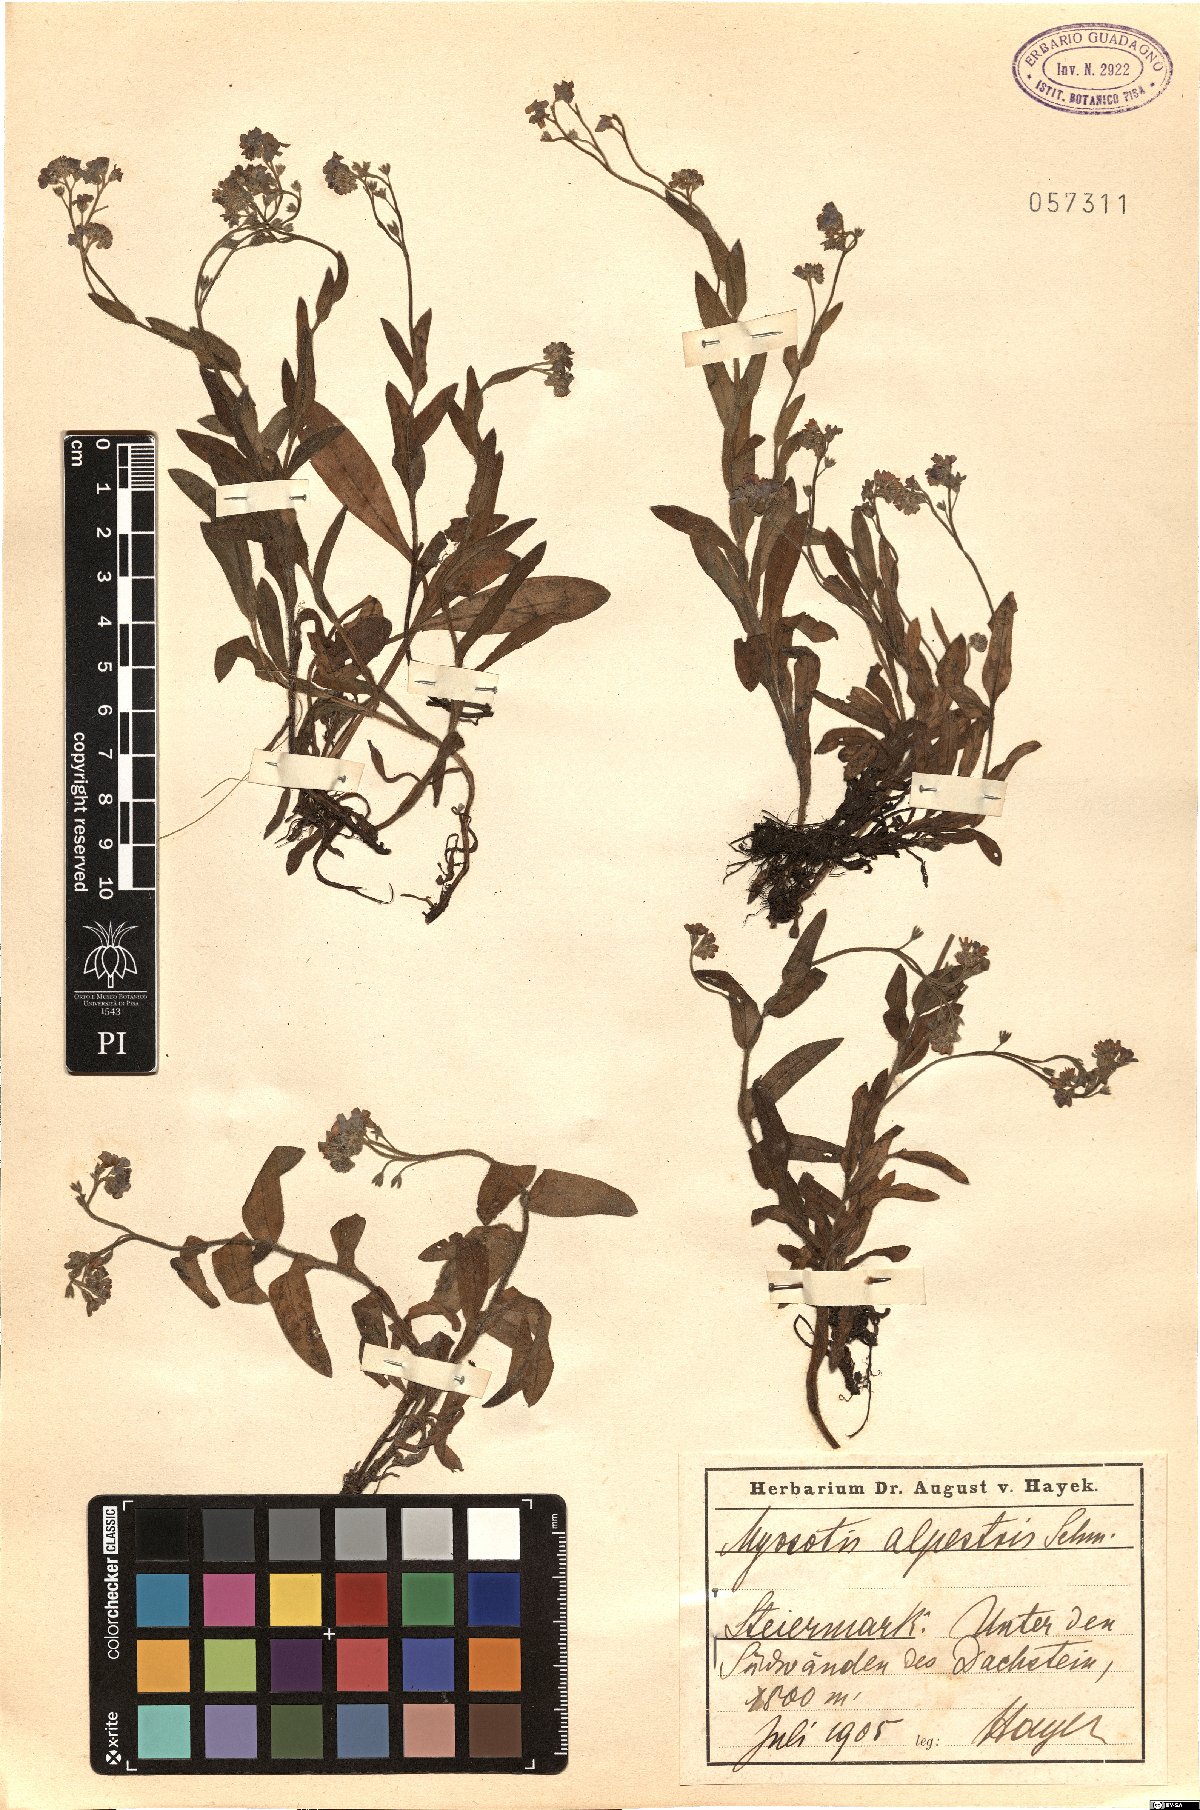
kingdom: Plantae
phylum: Tracheophyta
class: Magnoliopsida
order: Boraginales
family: Boraginaceae
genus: Myosotis
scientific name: Myosotis alpestris
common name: Alpine forget-me-not
